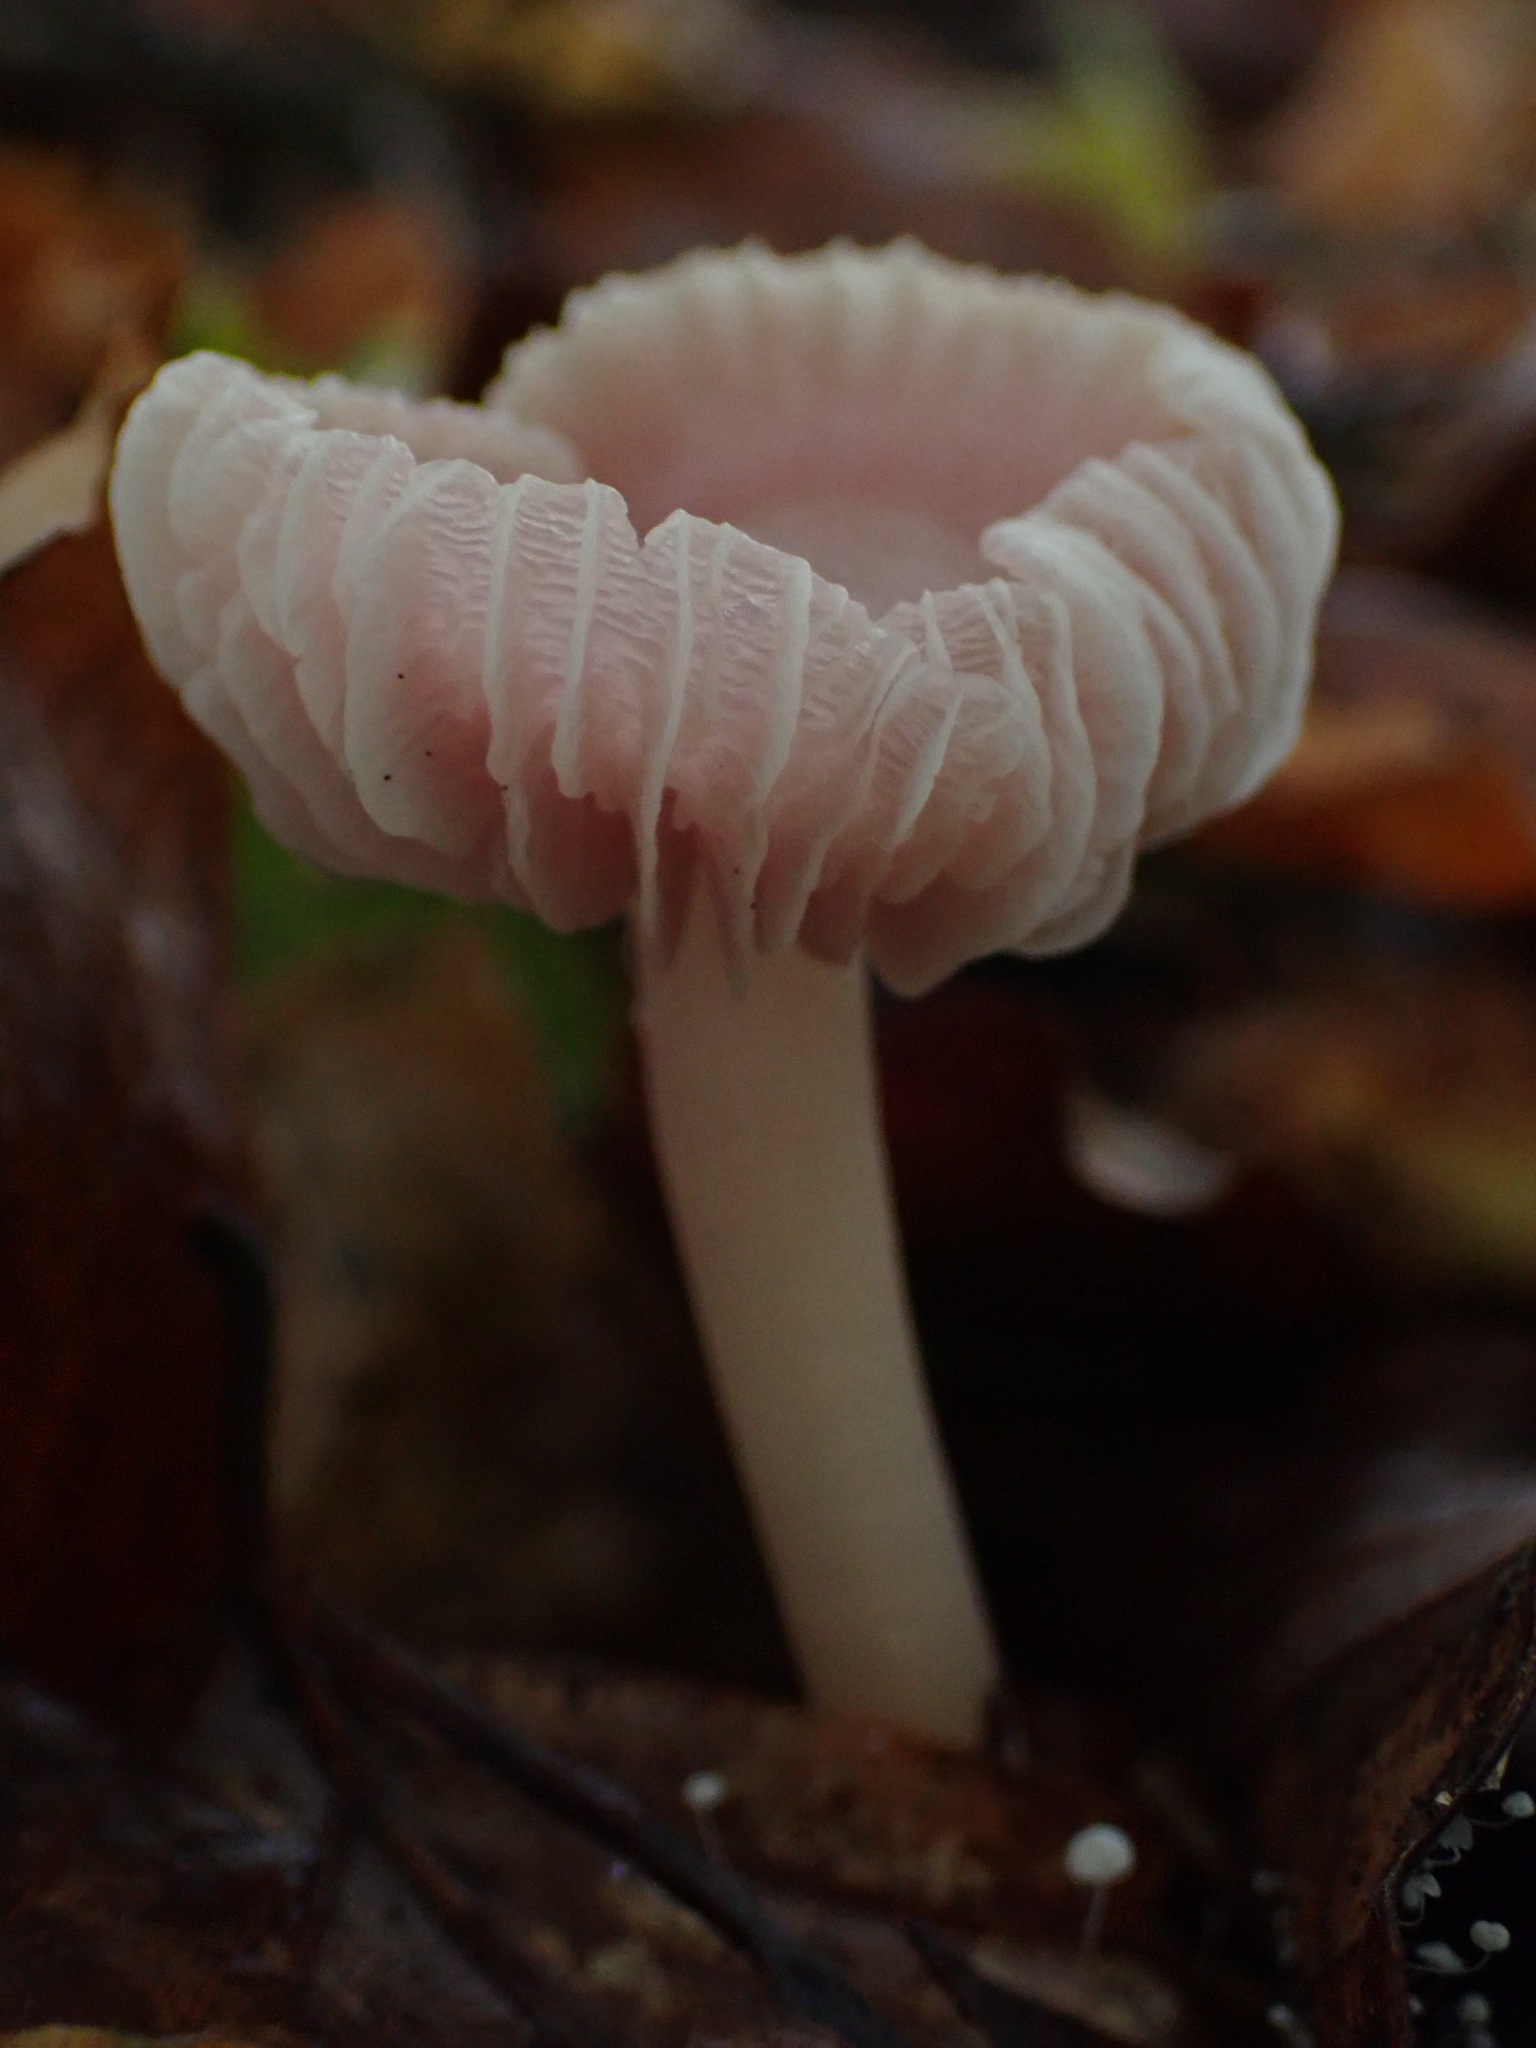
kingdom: Fungi
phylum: Basidiomycota
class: Agaricomycetes
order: Agaricales
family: Mycenaceae
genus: Mycena
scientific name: Mycena rosea
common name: rosa huesvamp
